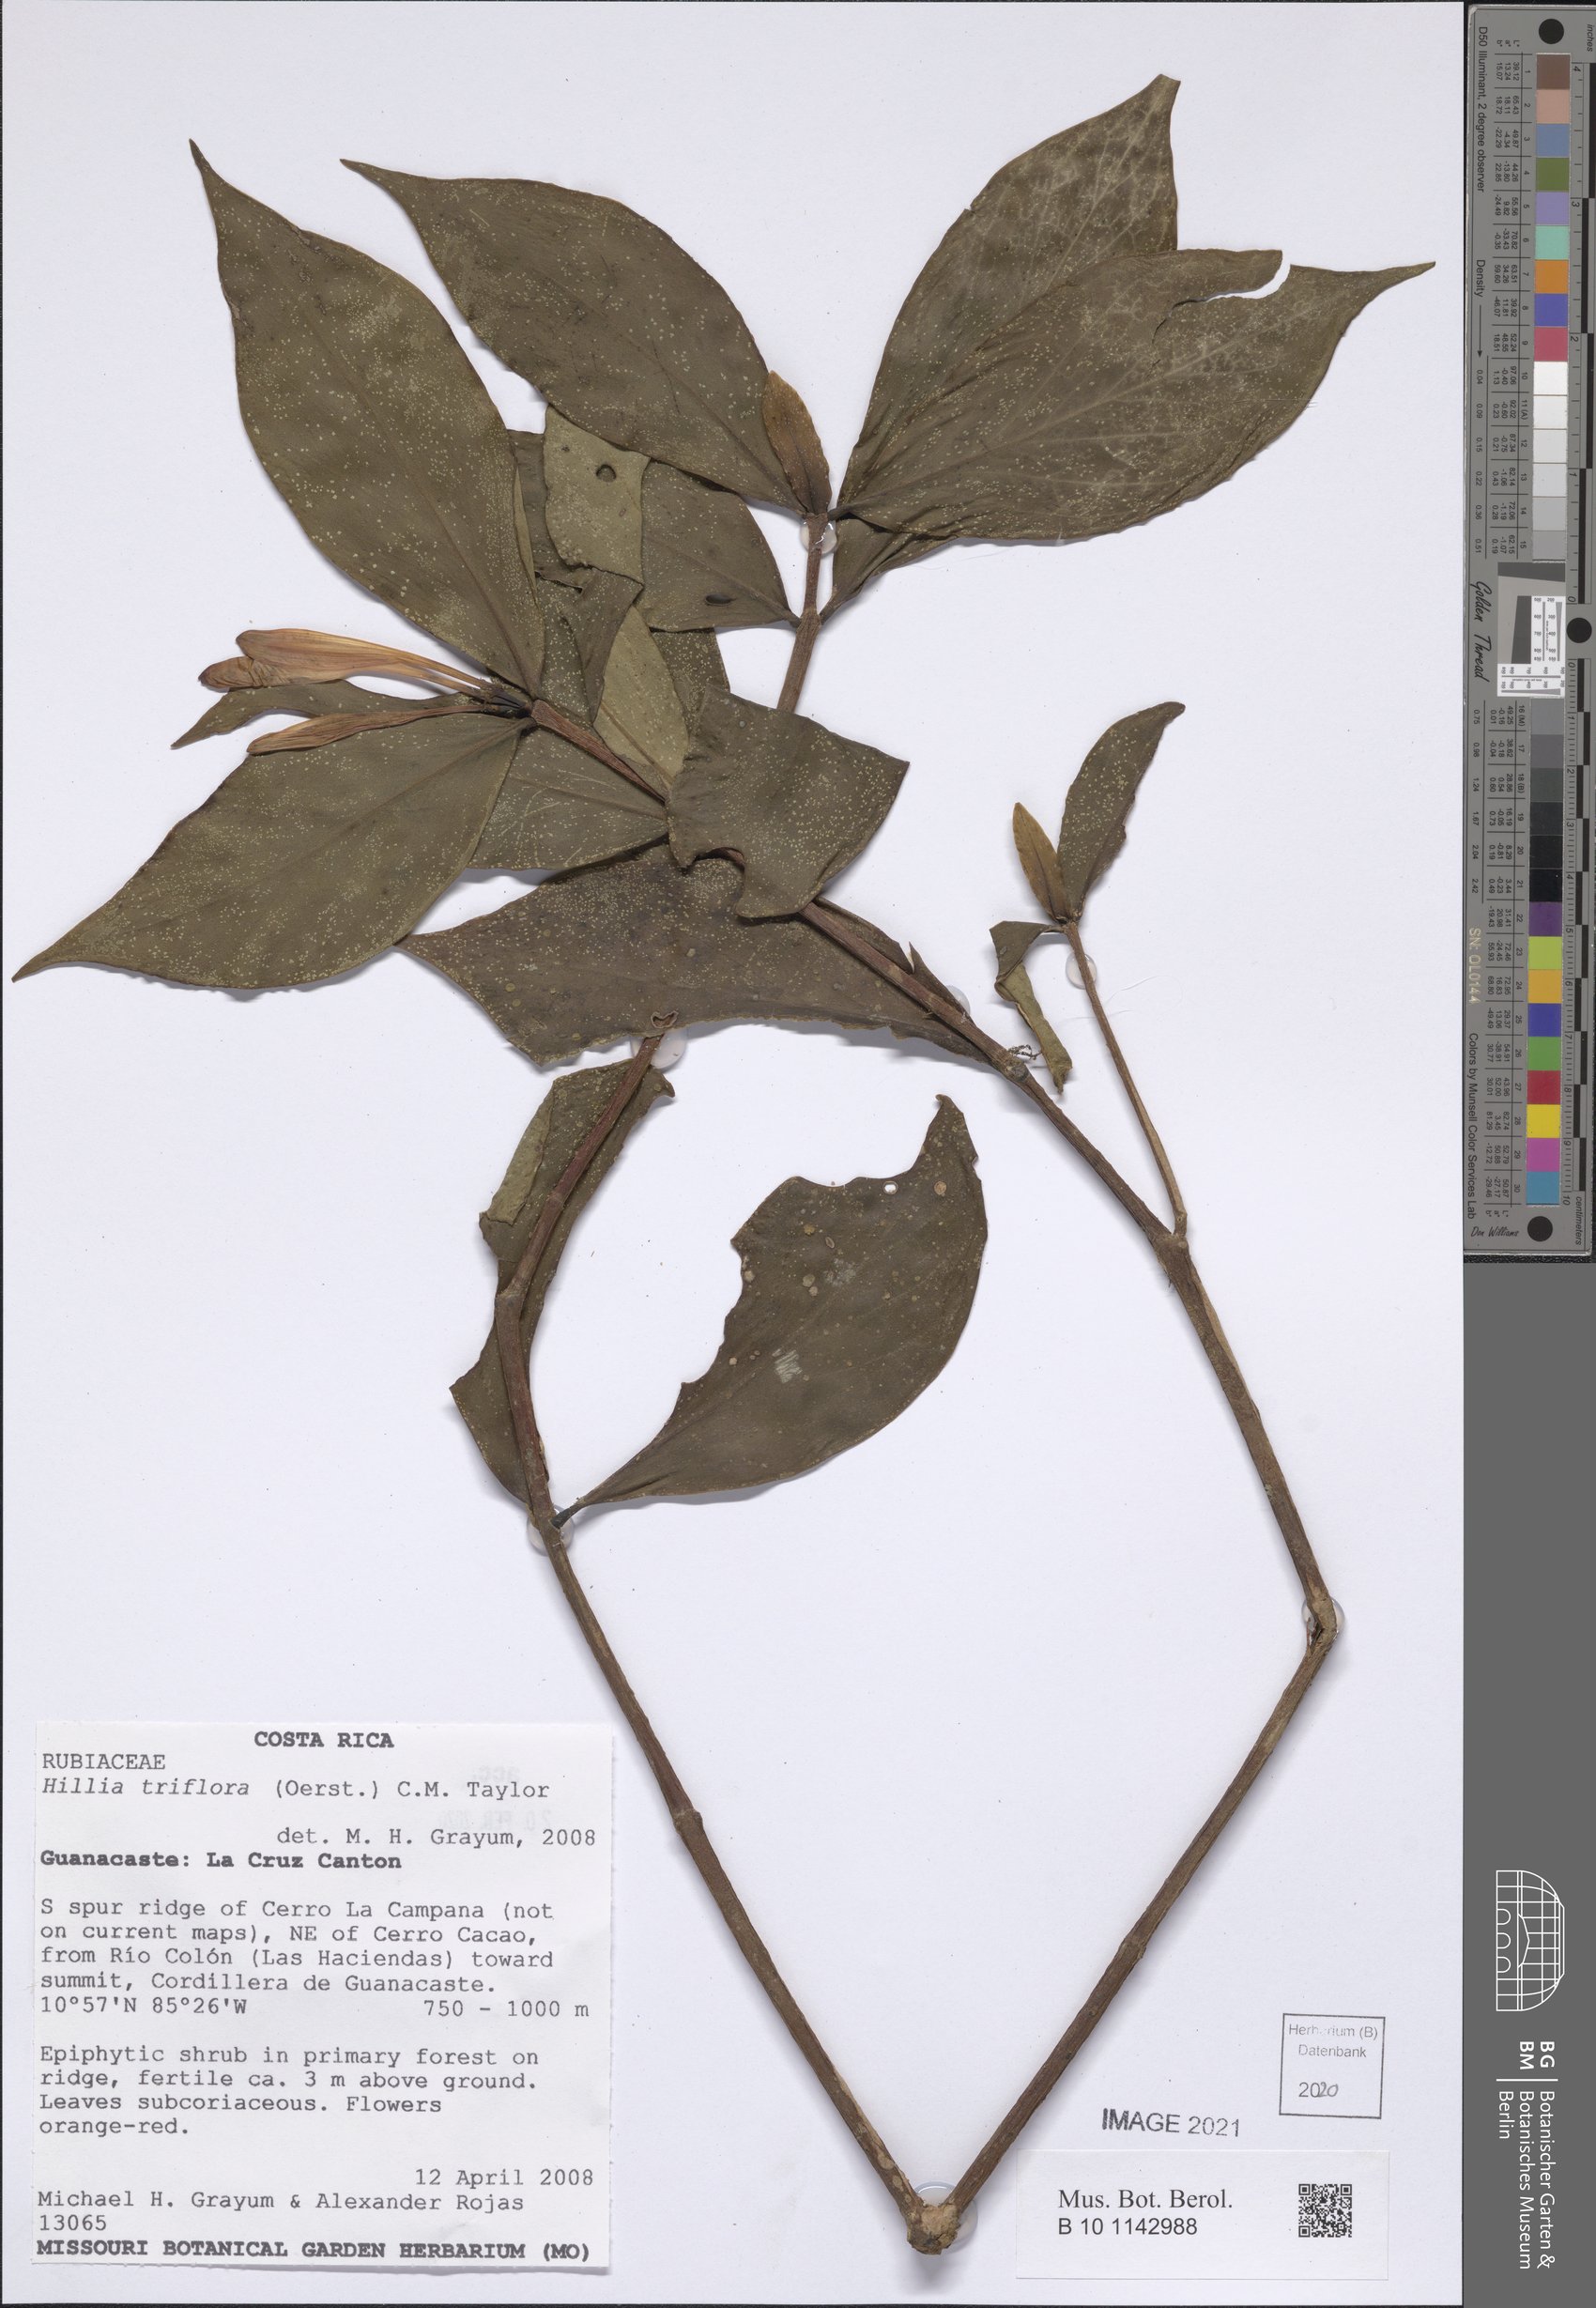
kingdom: Plantae
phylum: Tracheophyta
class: Magnoliopsida
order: Gentianales
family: Rubiaceae
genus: Hillia
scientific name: Hillia triflora
